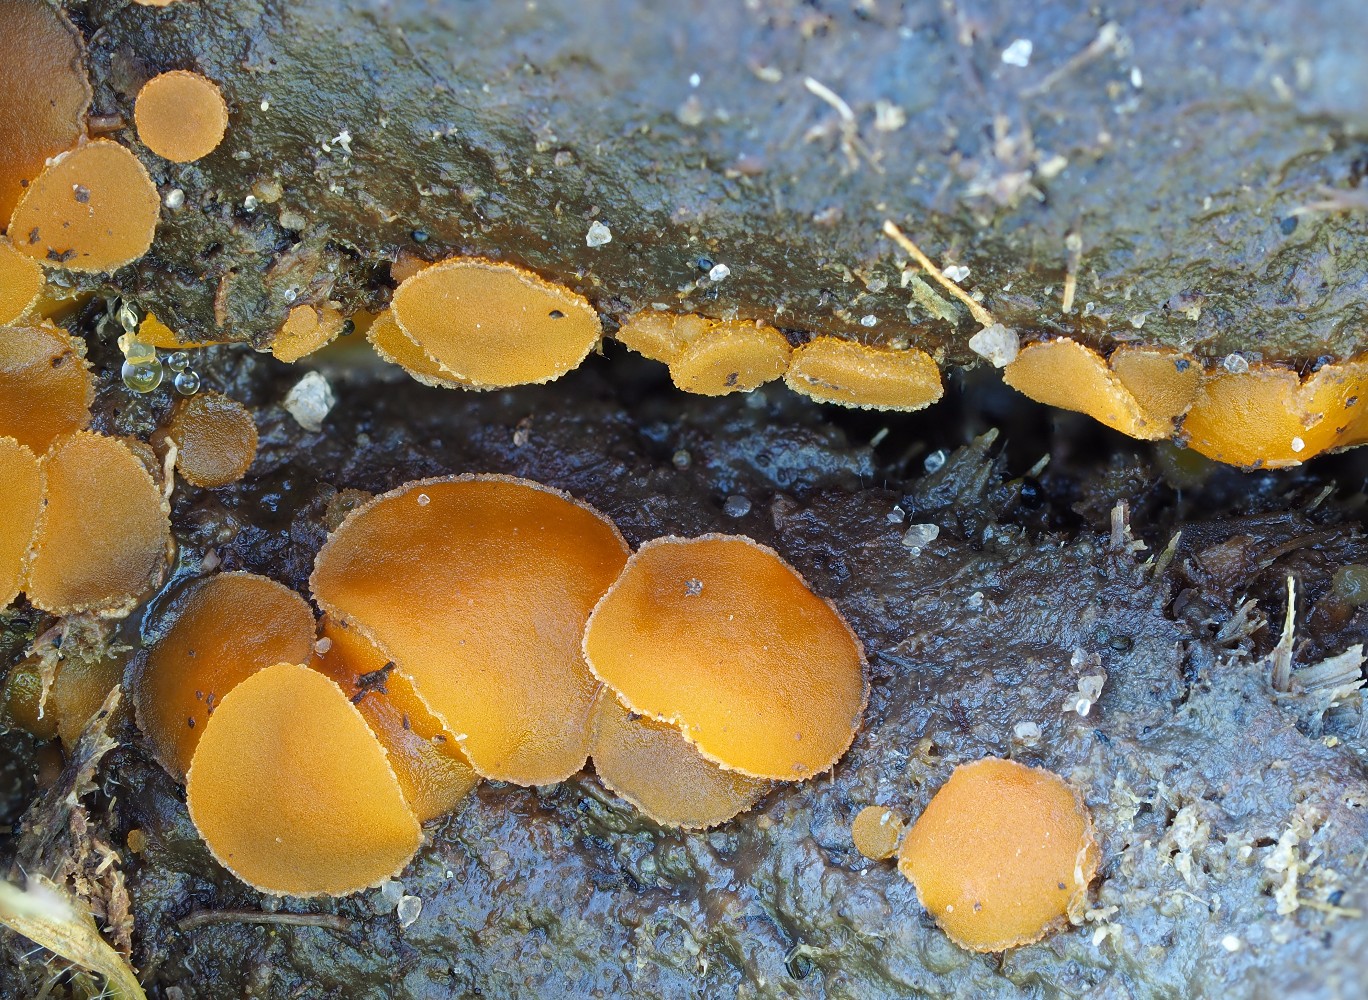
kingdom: Fungi
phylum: Ascomycota
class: Pezizomycetes
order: Pezizales
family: Pyronemataceae
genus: Cheilymenia
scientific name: Cheilymenia granulata
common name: møgbæger
